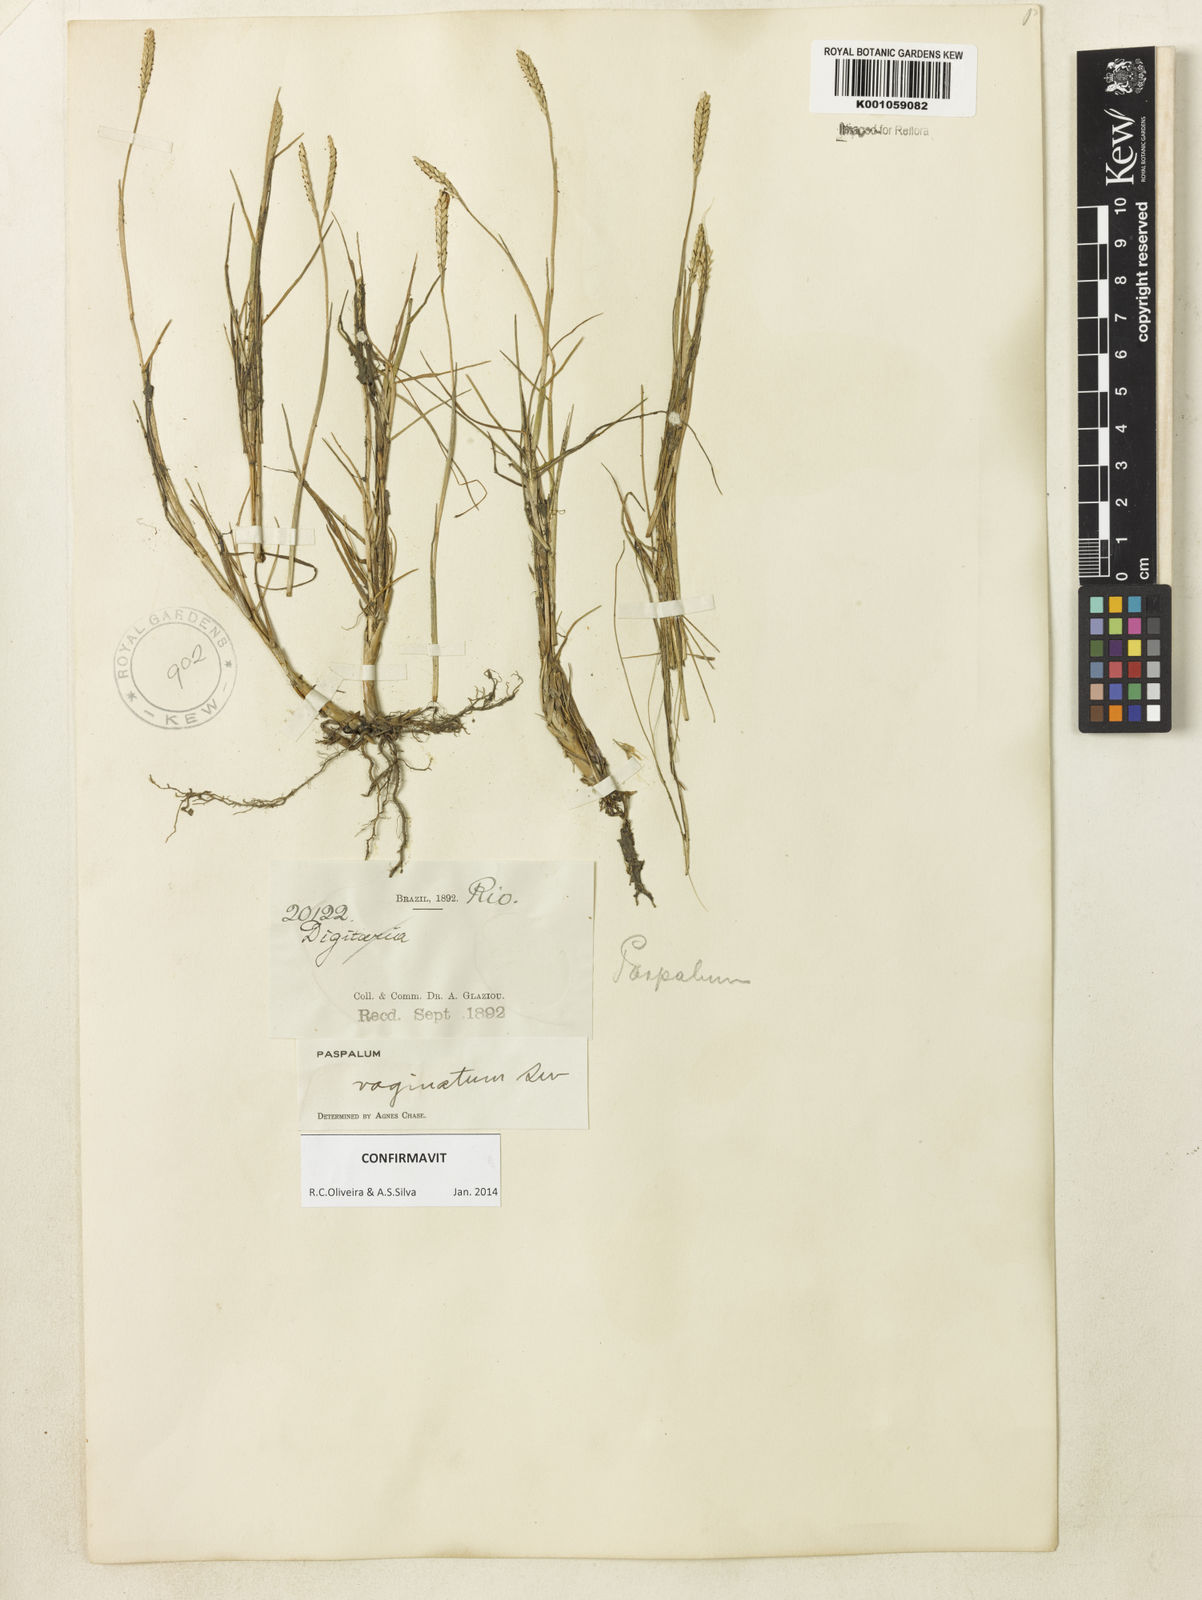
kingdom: Plantae
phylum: Tracheophyta
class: Liliopsida
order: Poales
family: Poaceae
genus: Paspalum
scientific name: Paspalum vaginatum
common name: Seashore paspalum
